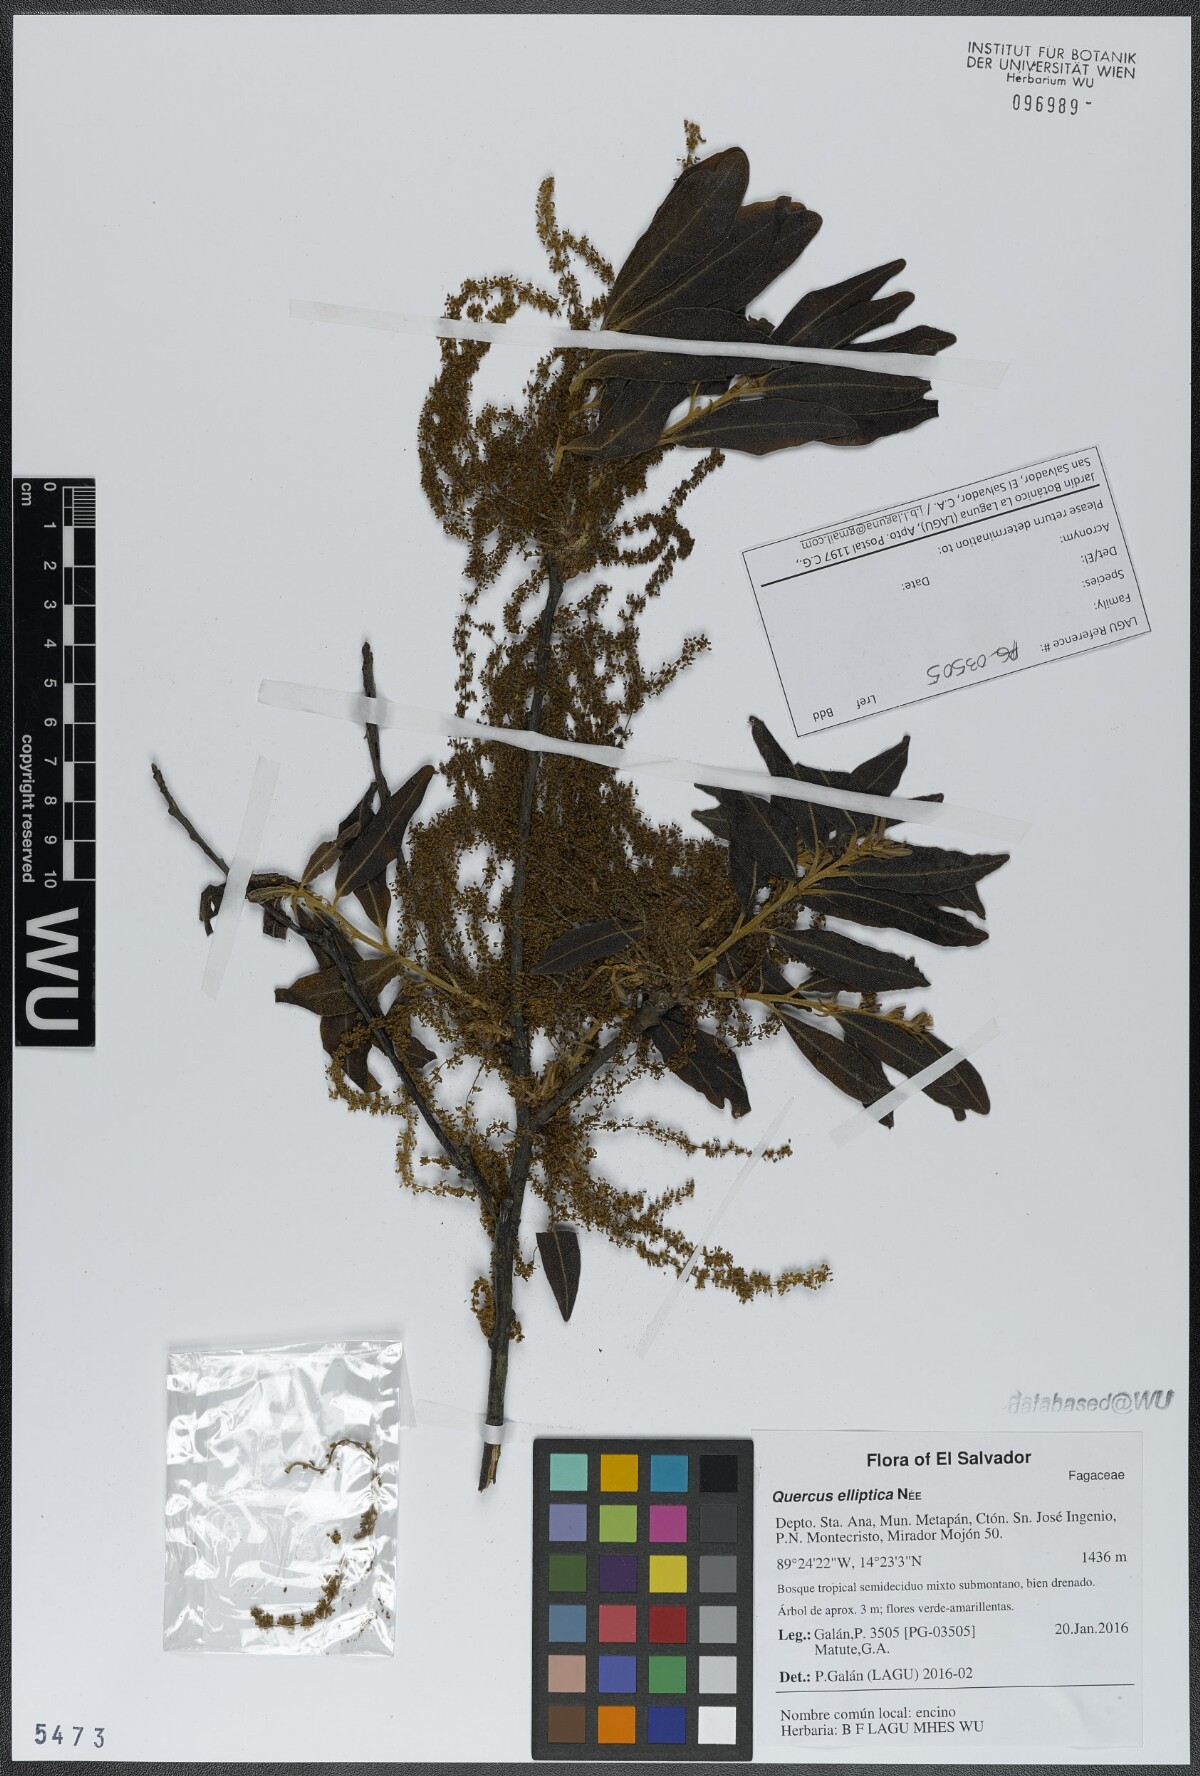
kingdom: Plantae
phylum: Tracheophyta
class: Magnoliopsida
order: Fagales
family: Fagaceae
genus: Quercus
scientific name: Quercus elliptica
